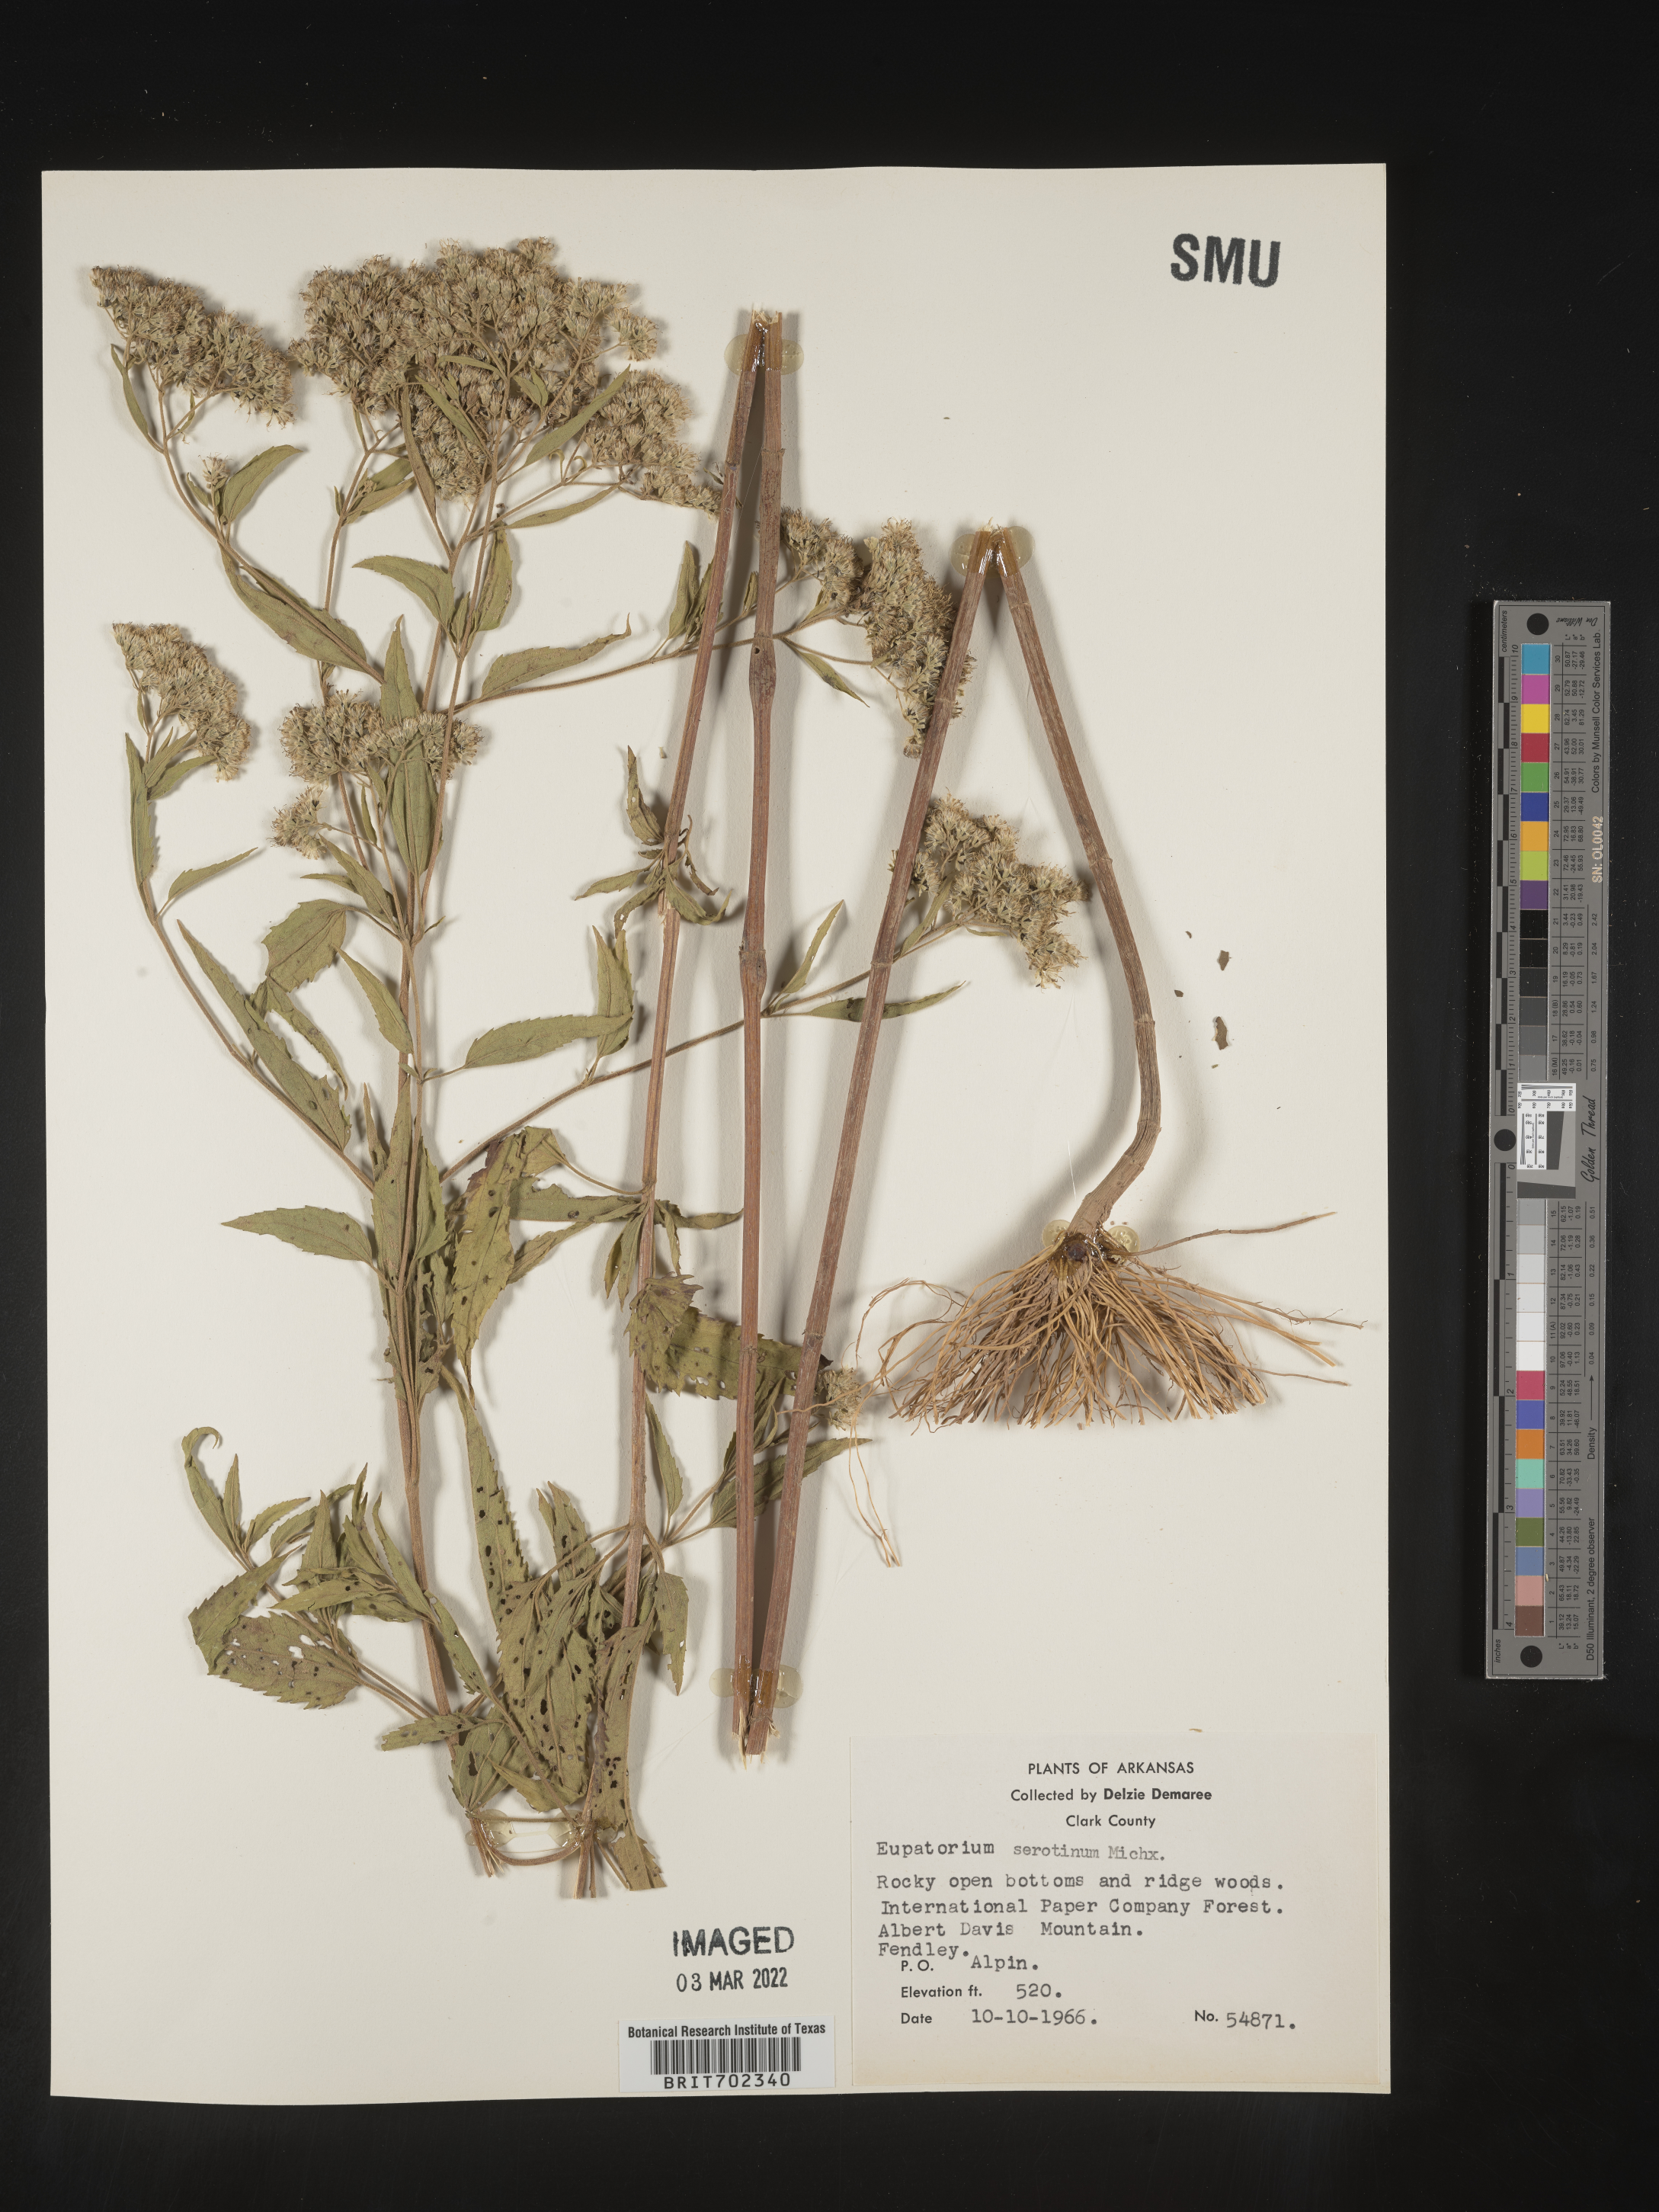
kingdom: Plantae
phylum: Tracheophyta
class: Magnoliopsida
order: Asterales
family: Asteraceae
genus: Eupatorium
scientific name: Eupatorium serotinum
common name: Late boneset
